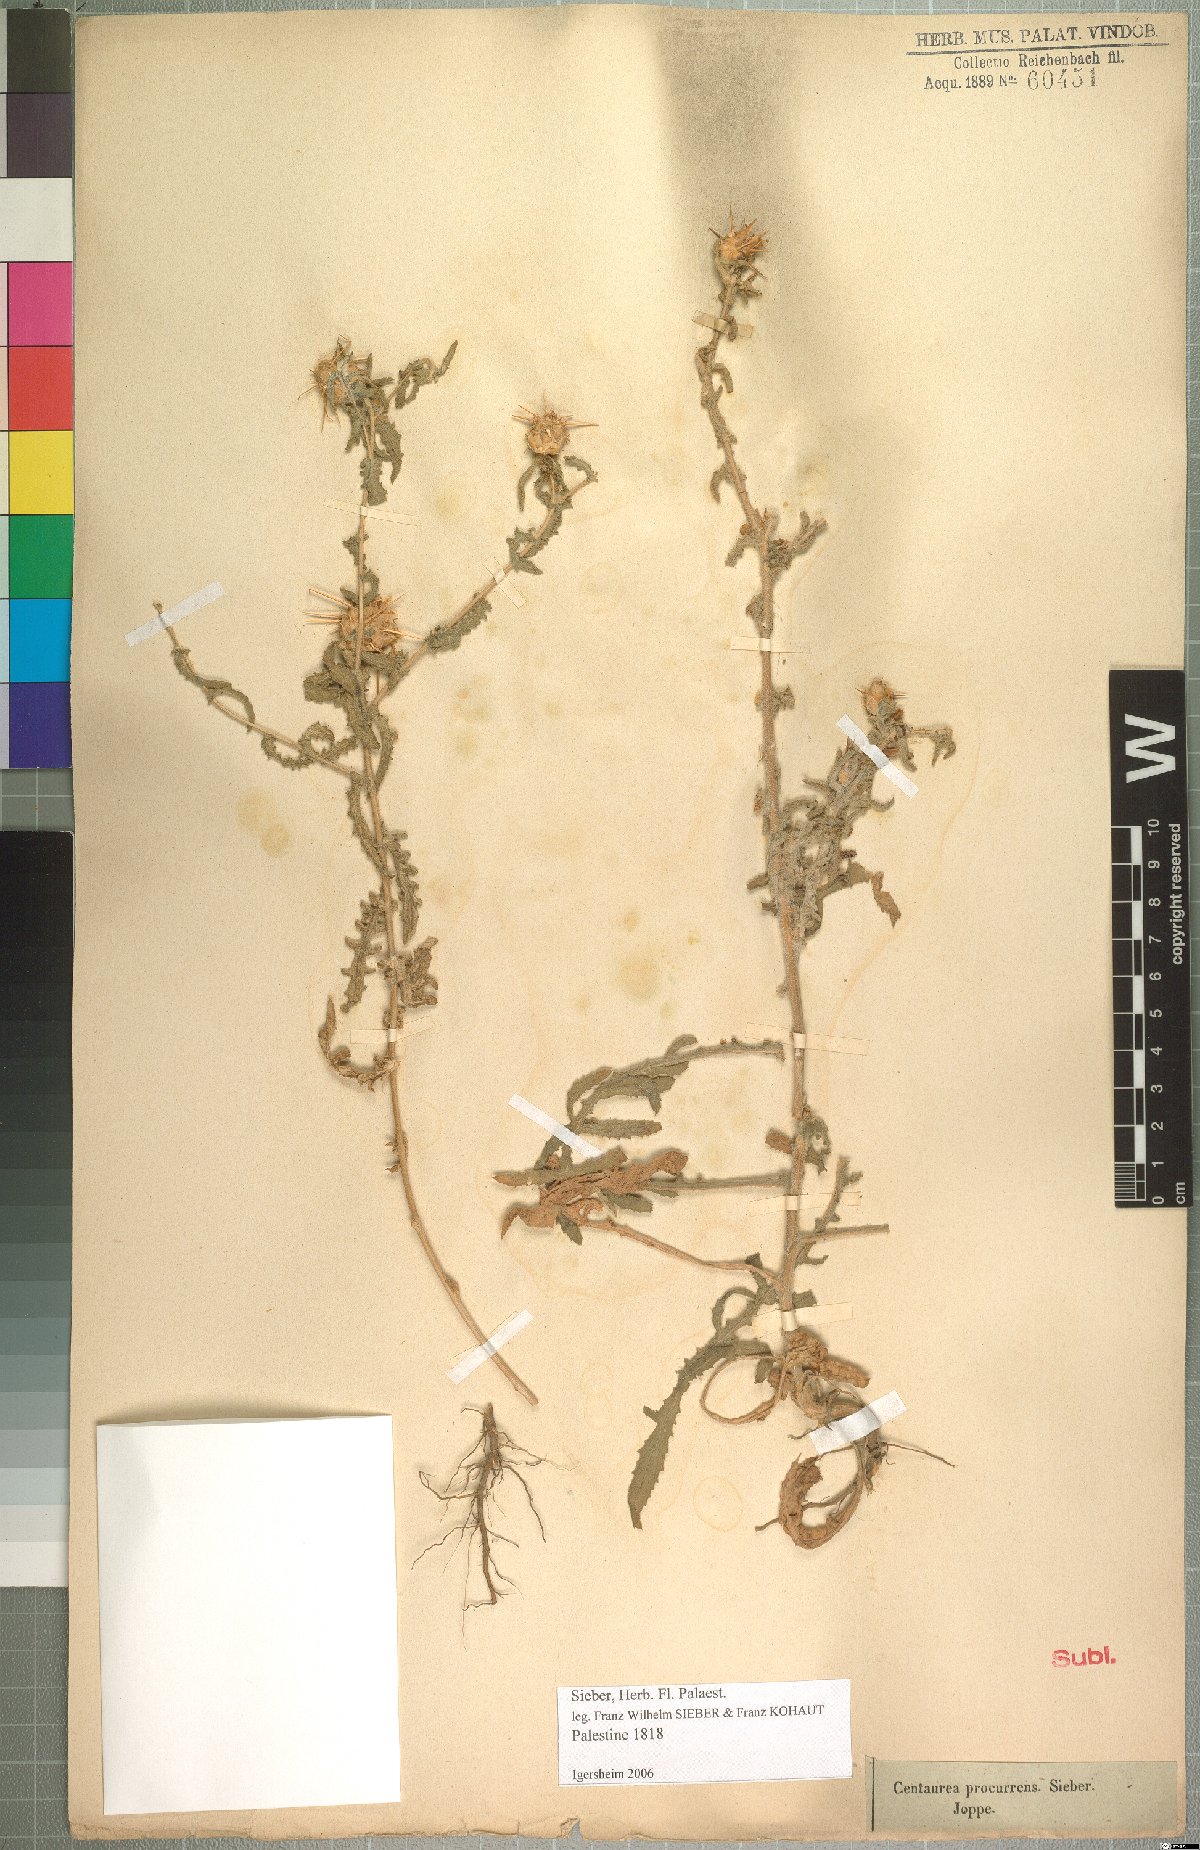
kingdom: Plantae
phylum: Tracheophyta
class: Magnoliopsida
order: Asterales
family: Asteraceae
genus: Centaurea
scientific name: Centaurea procurrens
